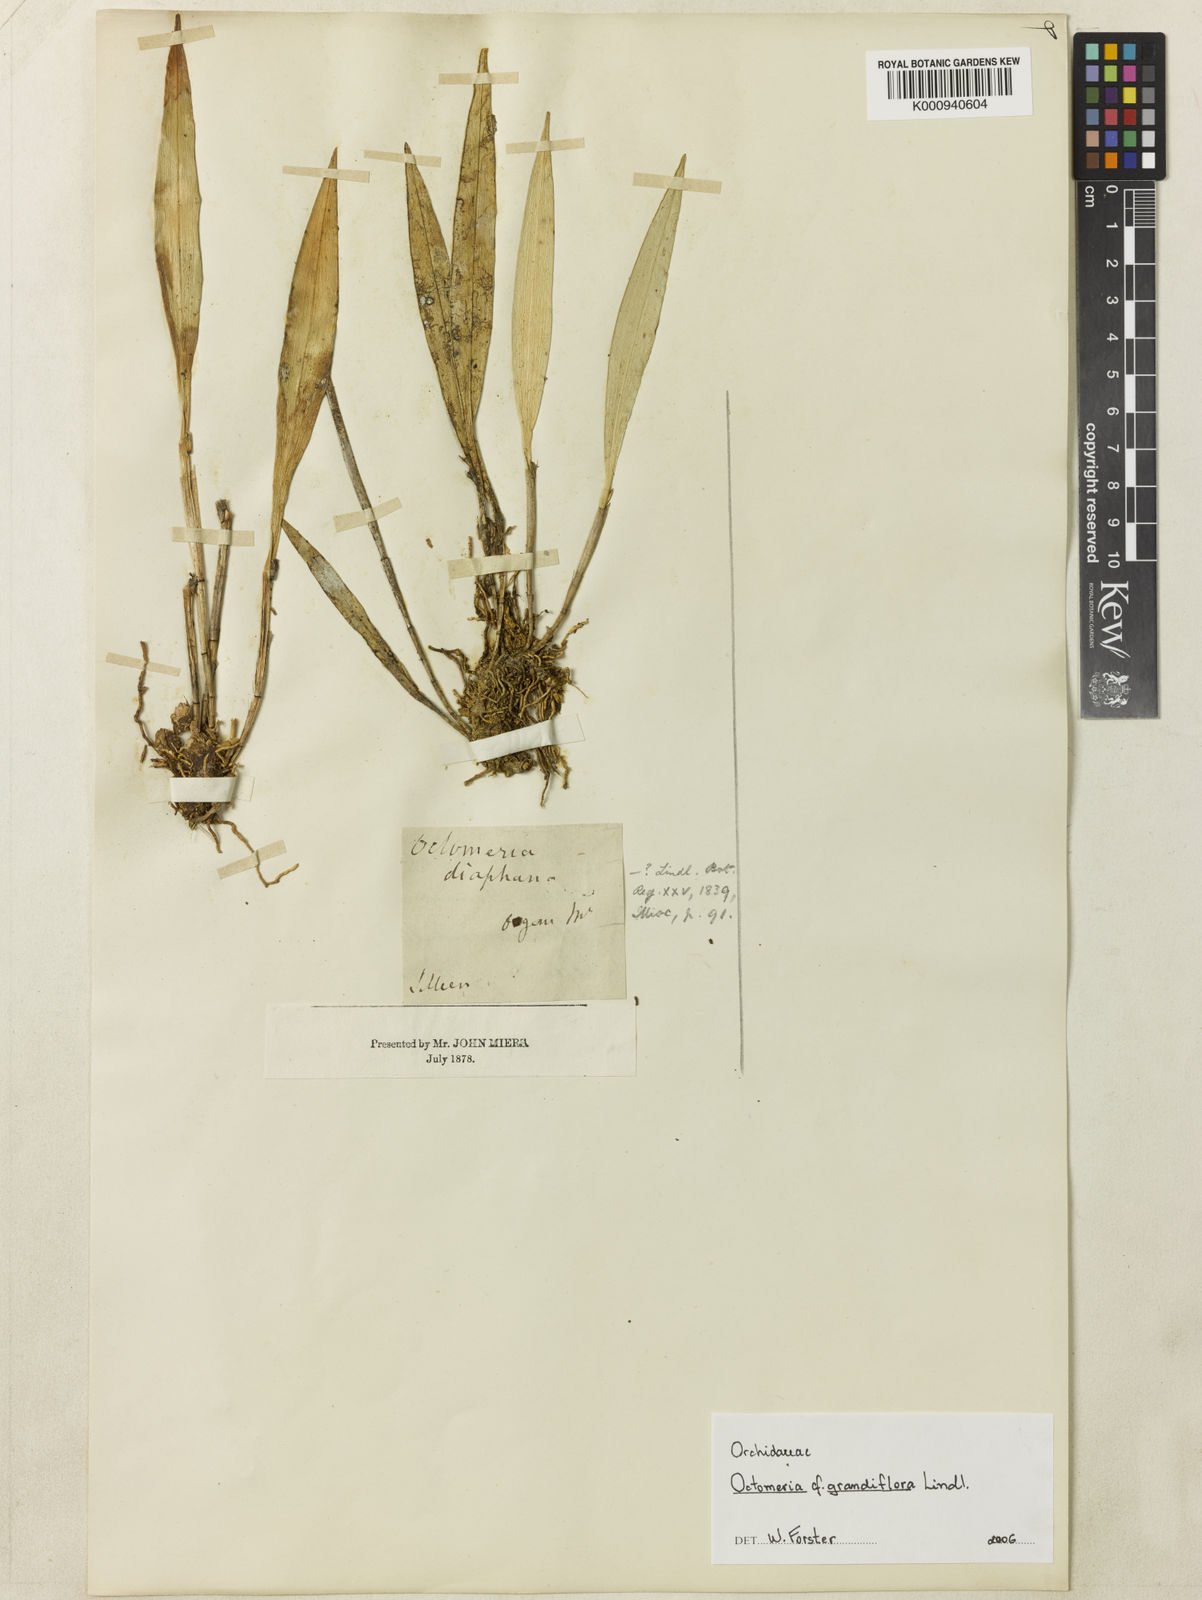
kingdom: Plantae
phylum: Tracheophyta
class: Liliopsida
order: Asparagales
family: Orchidaceae
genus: Octomeria
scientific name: Octomeria grandiflora
